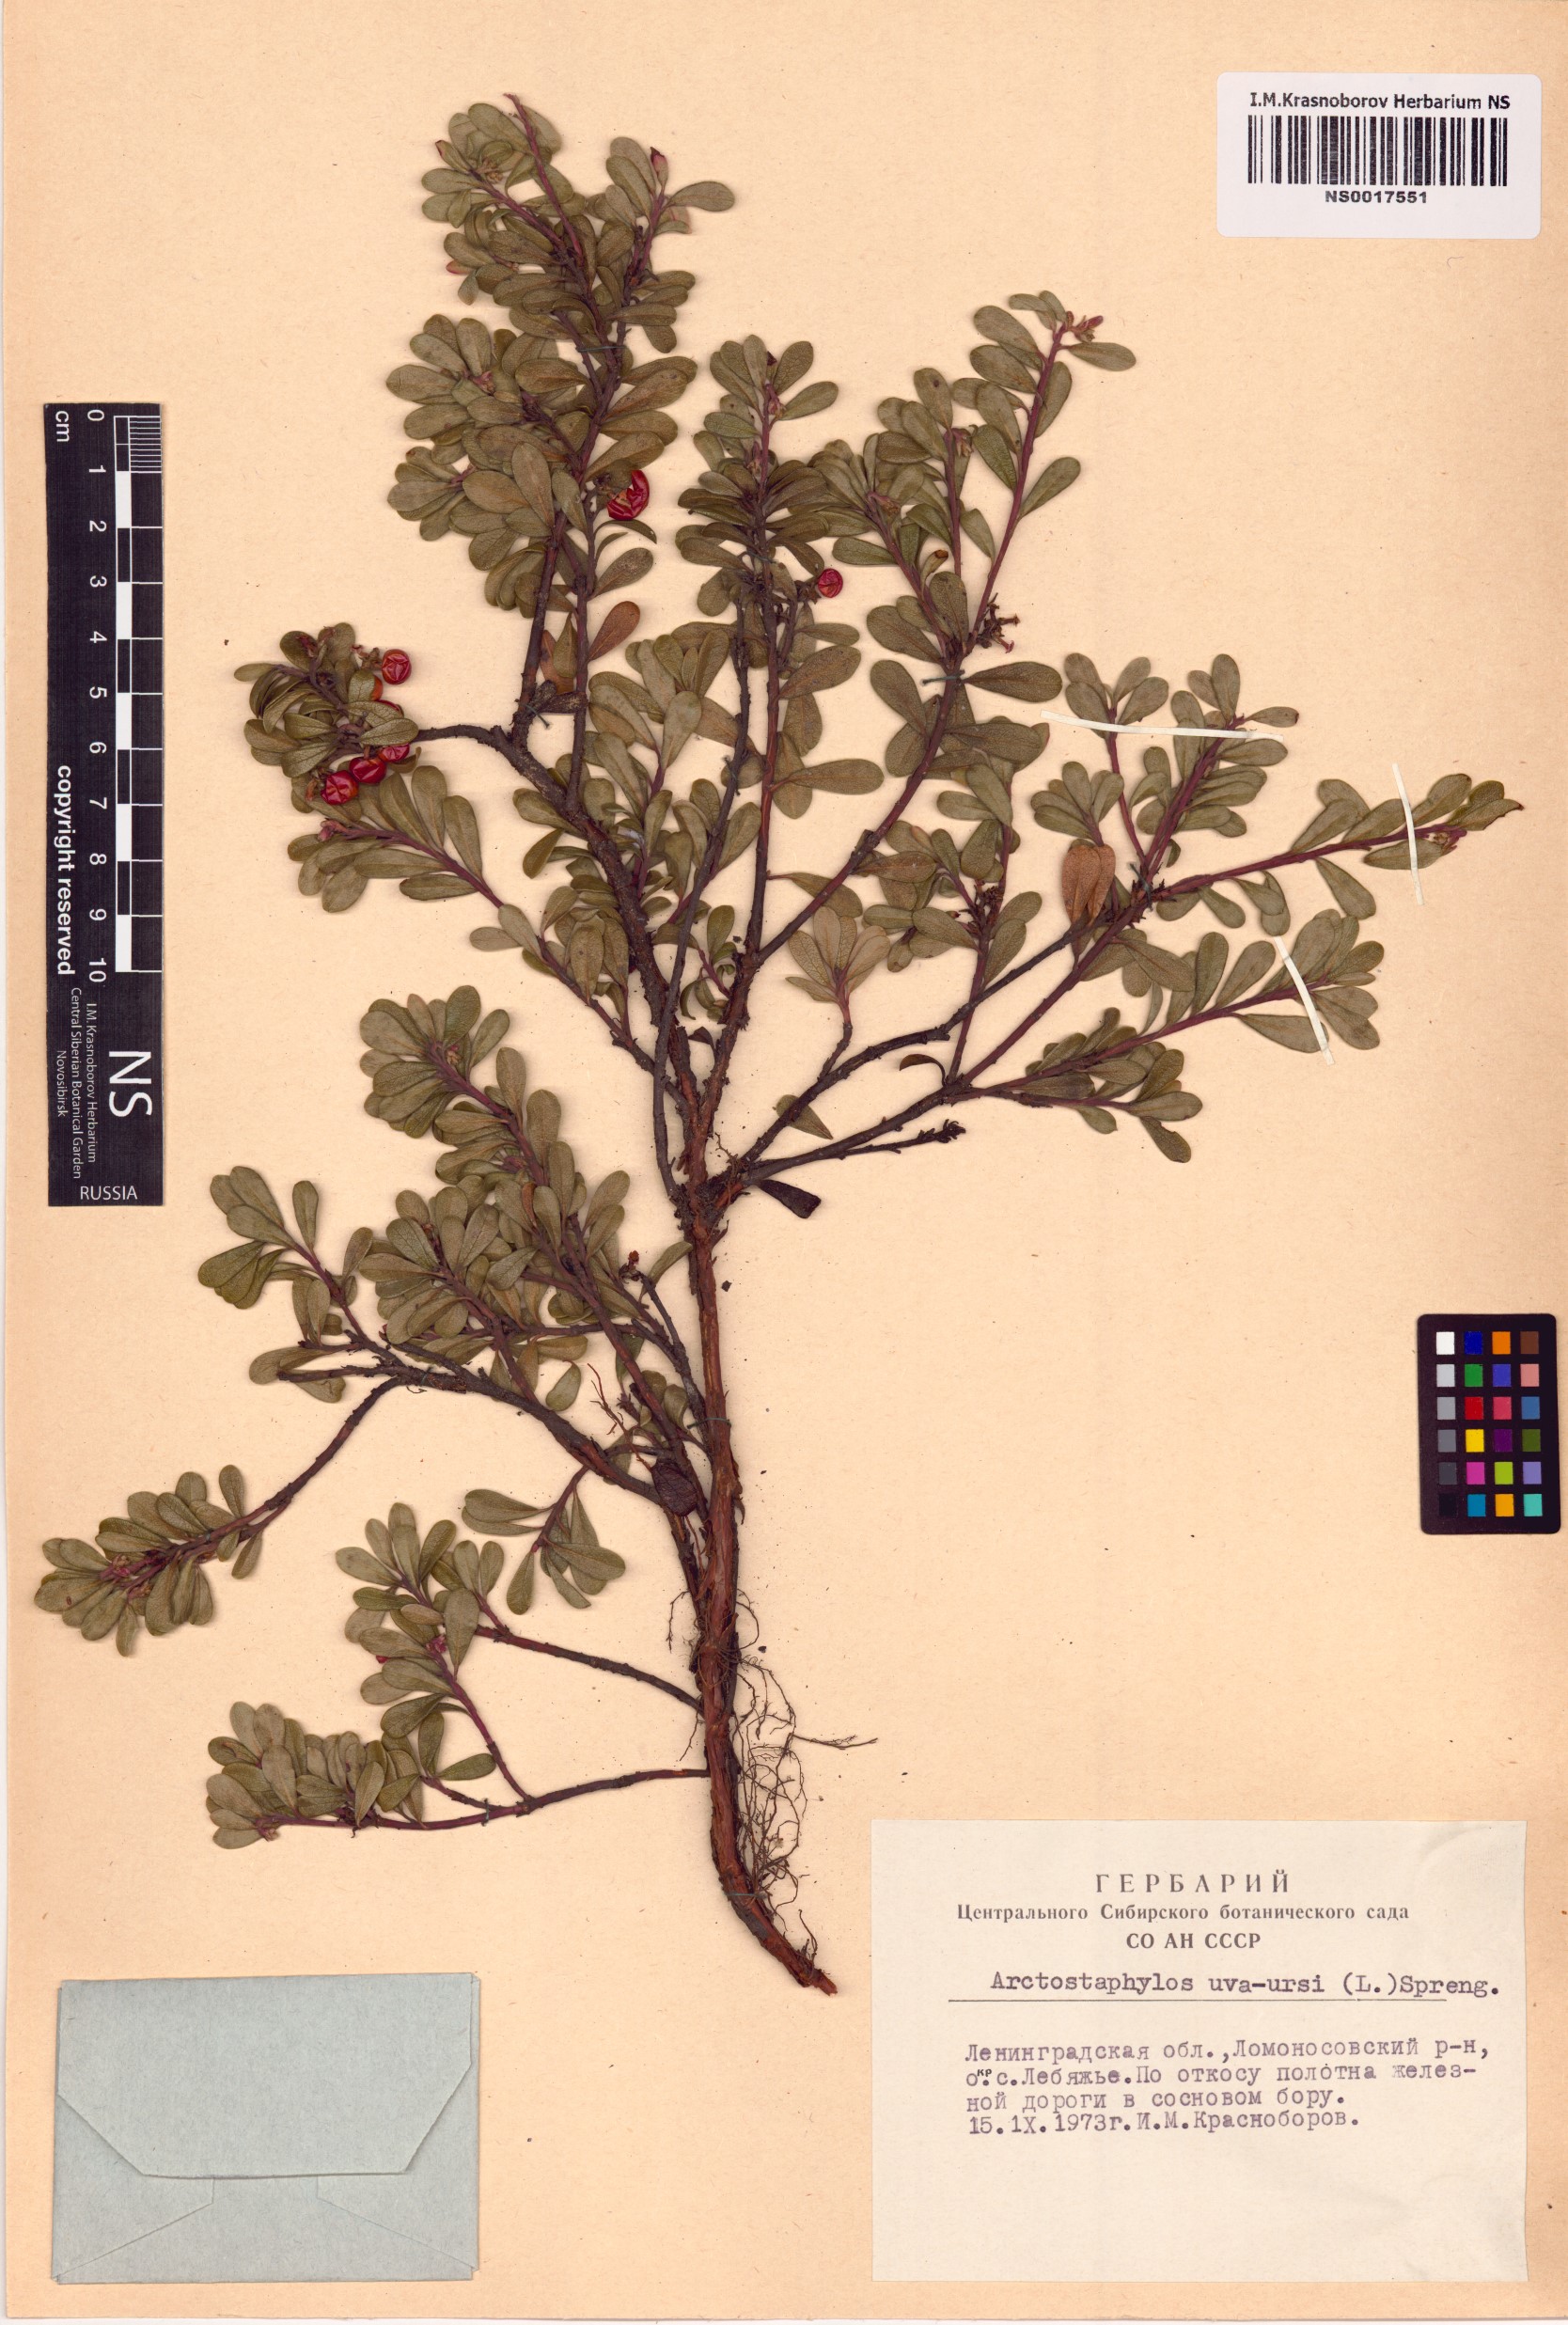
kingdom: Plantae
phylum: Tracheophyta
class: Magnoliopsida
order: Ericales
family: Ericaceae
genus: Arctostaphylos
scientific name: Arctostaphylos uva-ursi
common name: Bearberry
